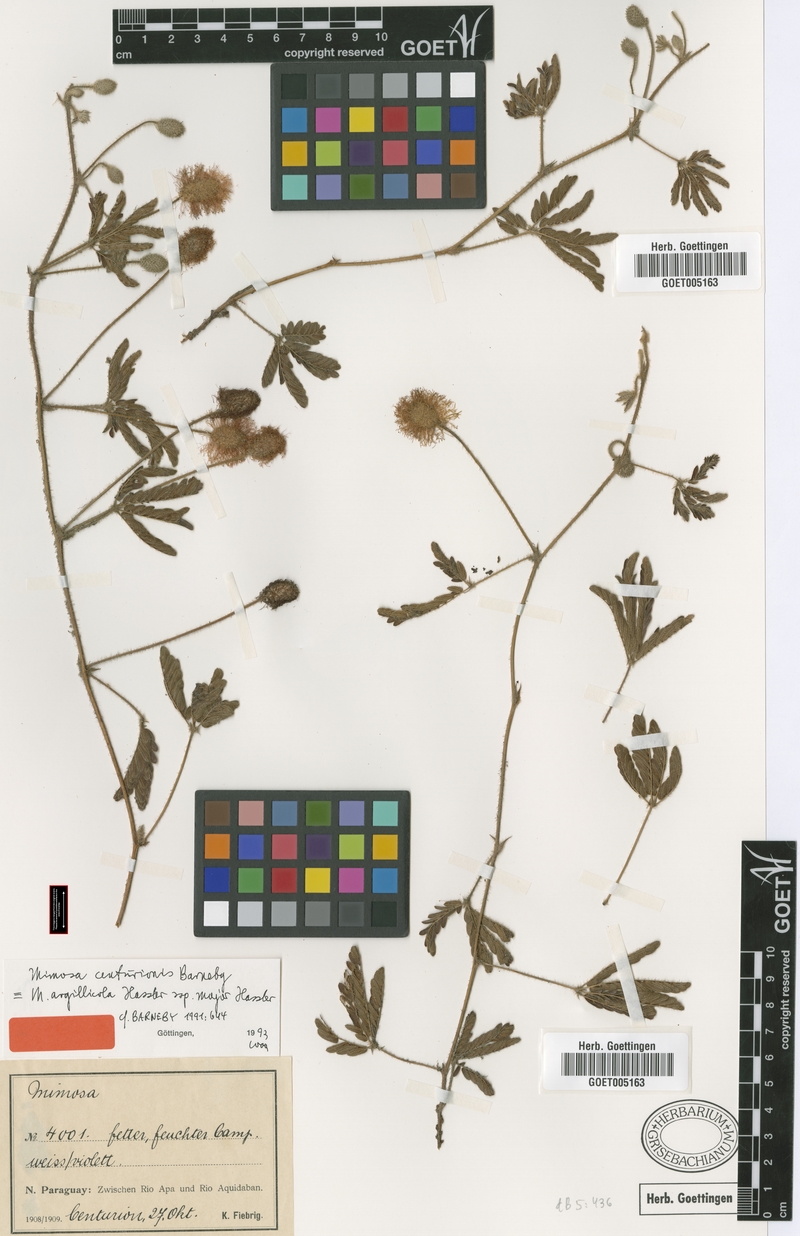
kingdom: Plantae
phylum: Tracheophyta
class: Magnoliopsida
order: Fabales
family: Fabaceae
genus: Mimosa
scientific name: Mimosa centurionis
